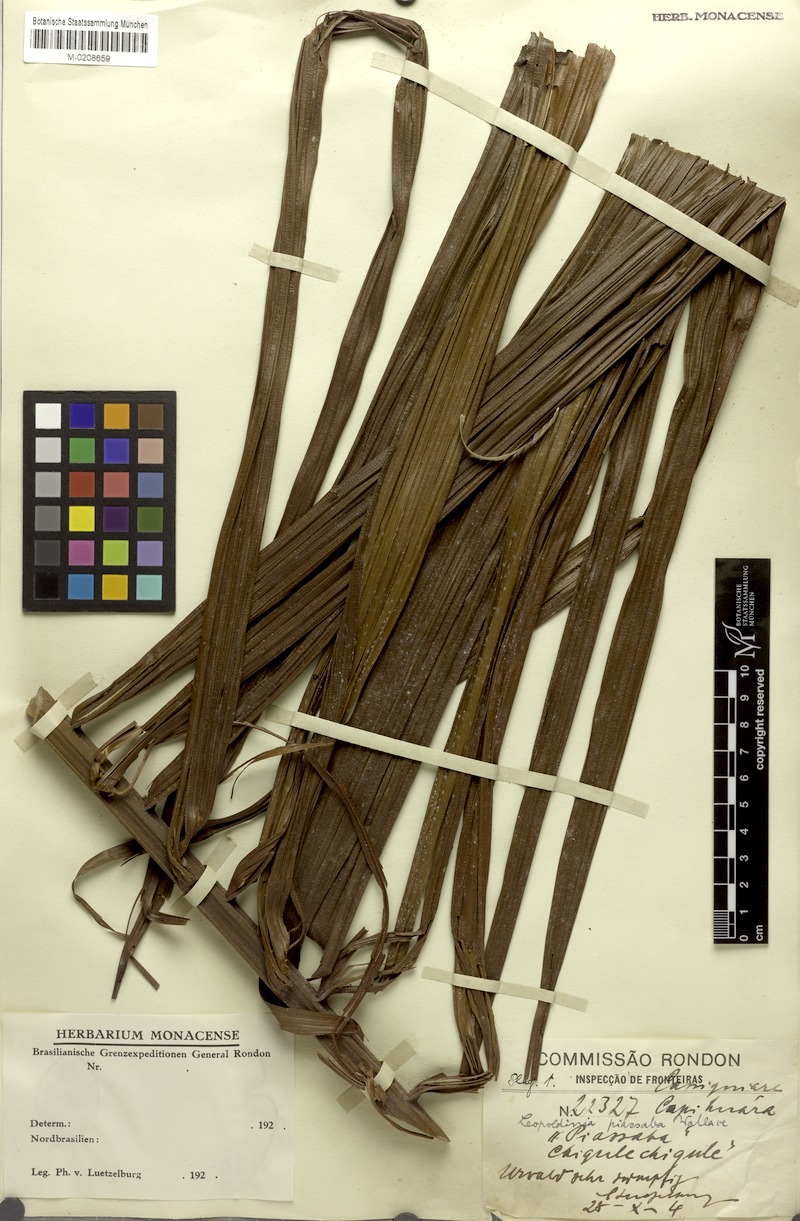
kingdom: Plantae
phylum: Tracheophyta
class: Liliopsida
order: Arecales
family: Arecaceae
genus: Leopoldinia
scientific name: Leopoldinia piassaba
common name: Piassaba
